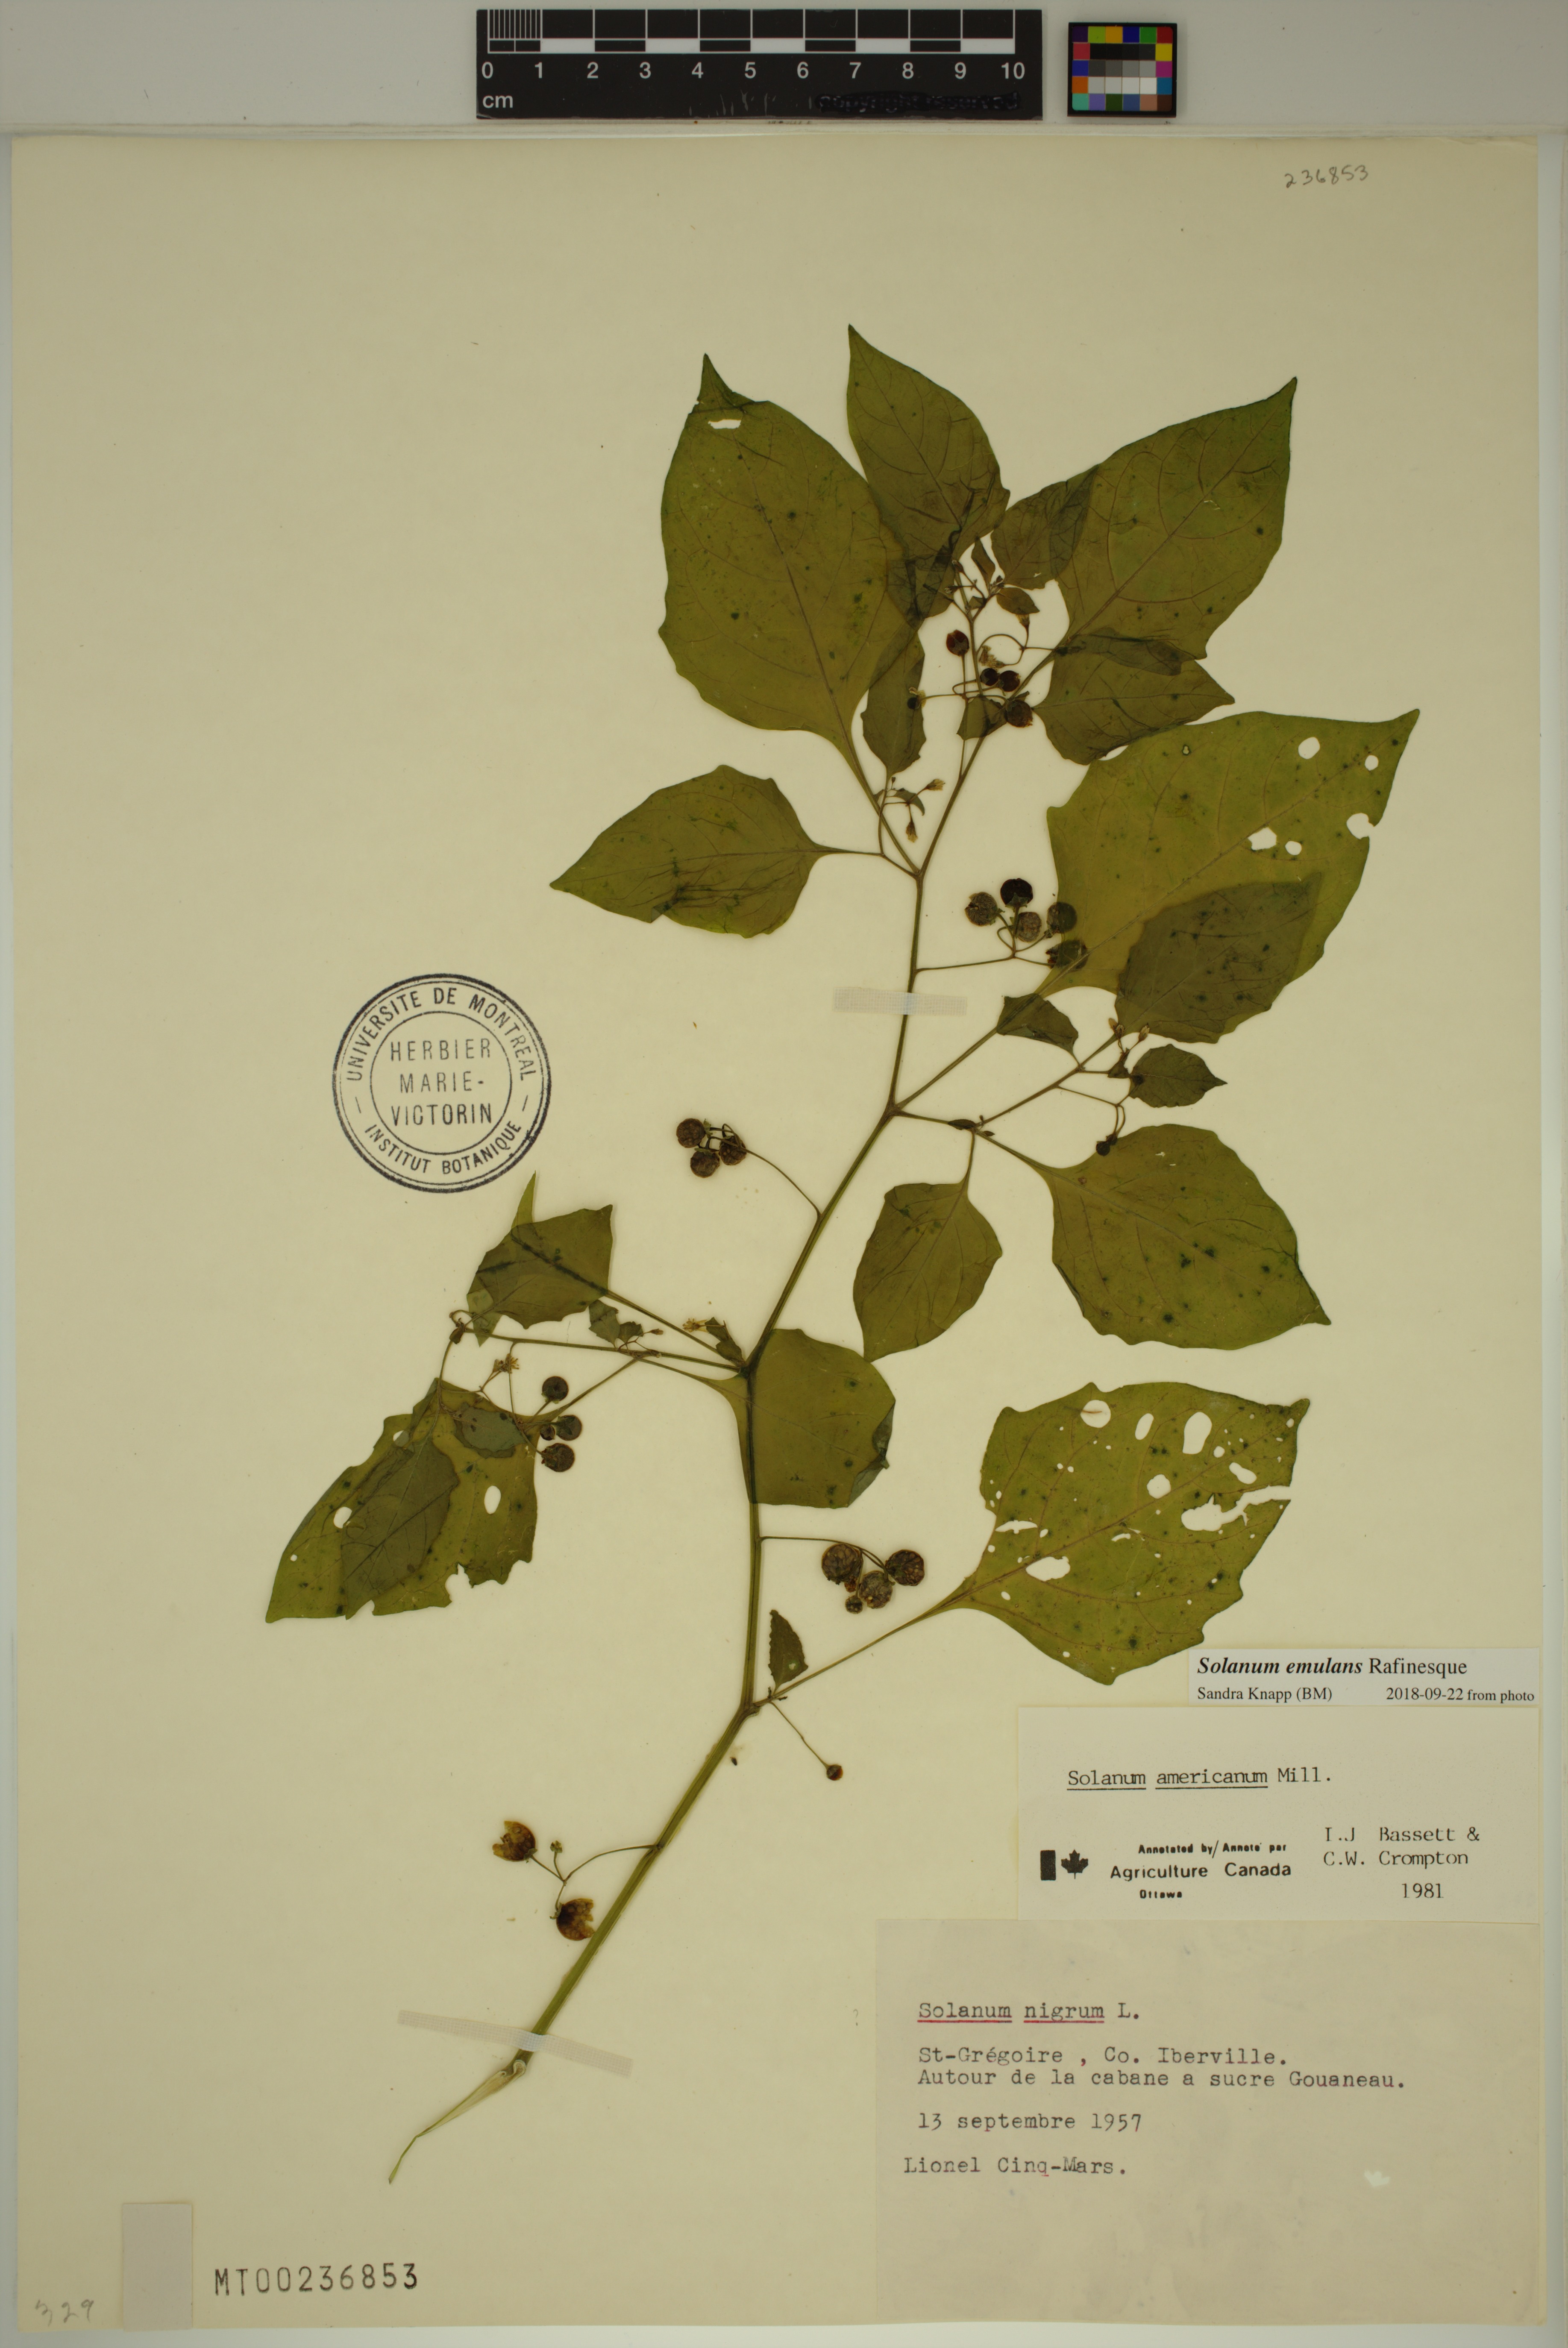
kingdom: Plantae
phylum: Tracheophyta
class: Magnoliopsida
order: Solanales
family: Solanaceae
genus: Solanum
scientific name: Solanum emulans
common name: Eastern black nightshade
